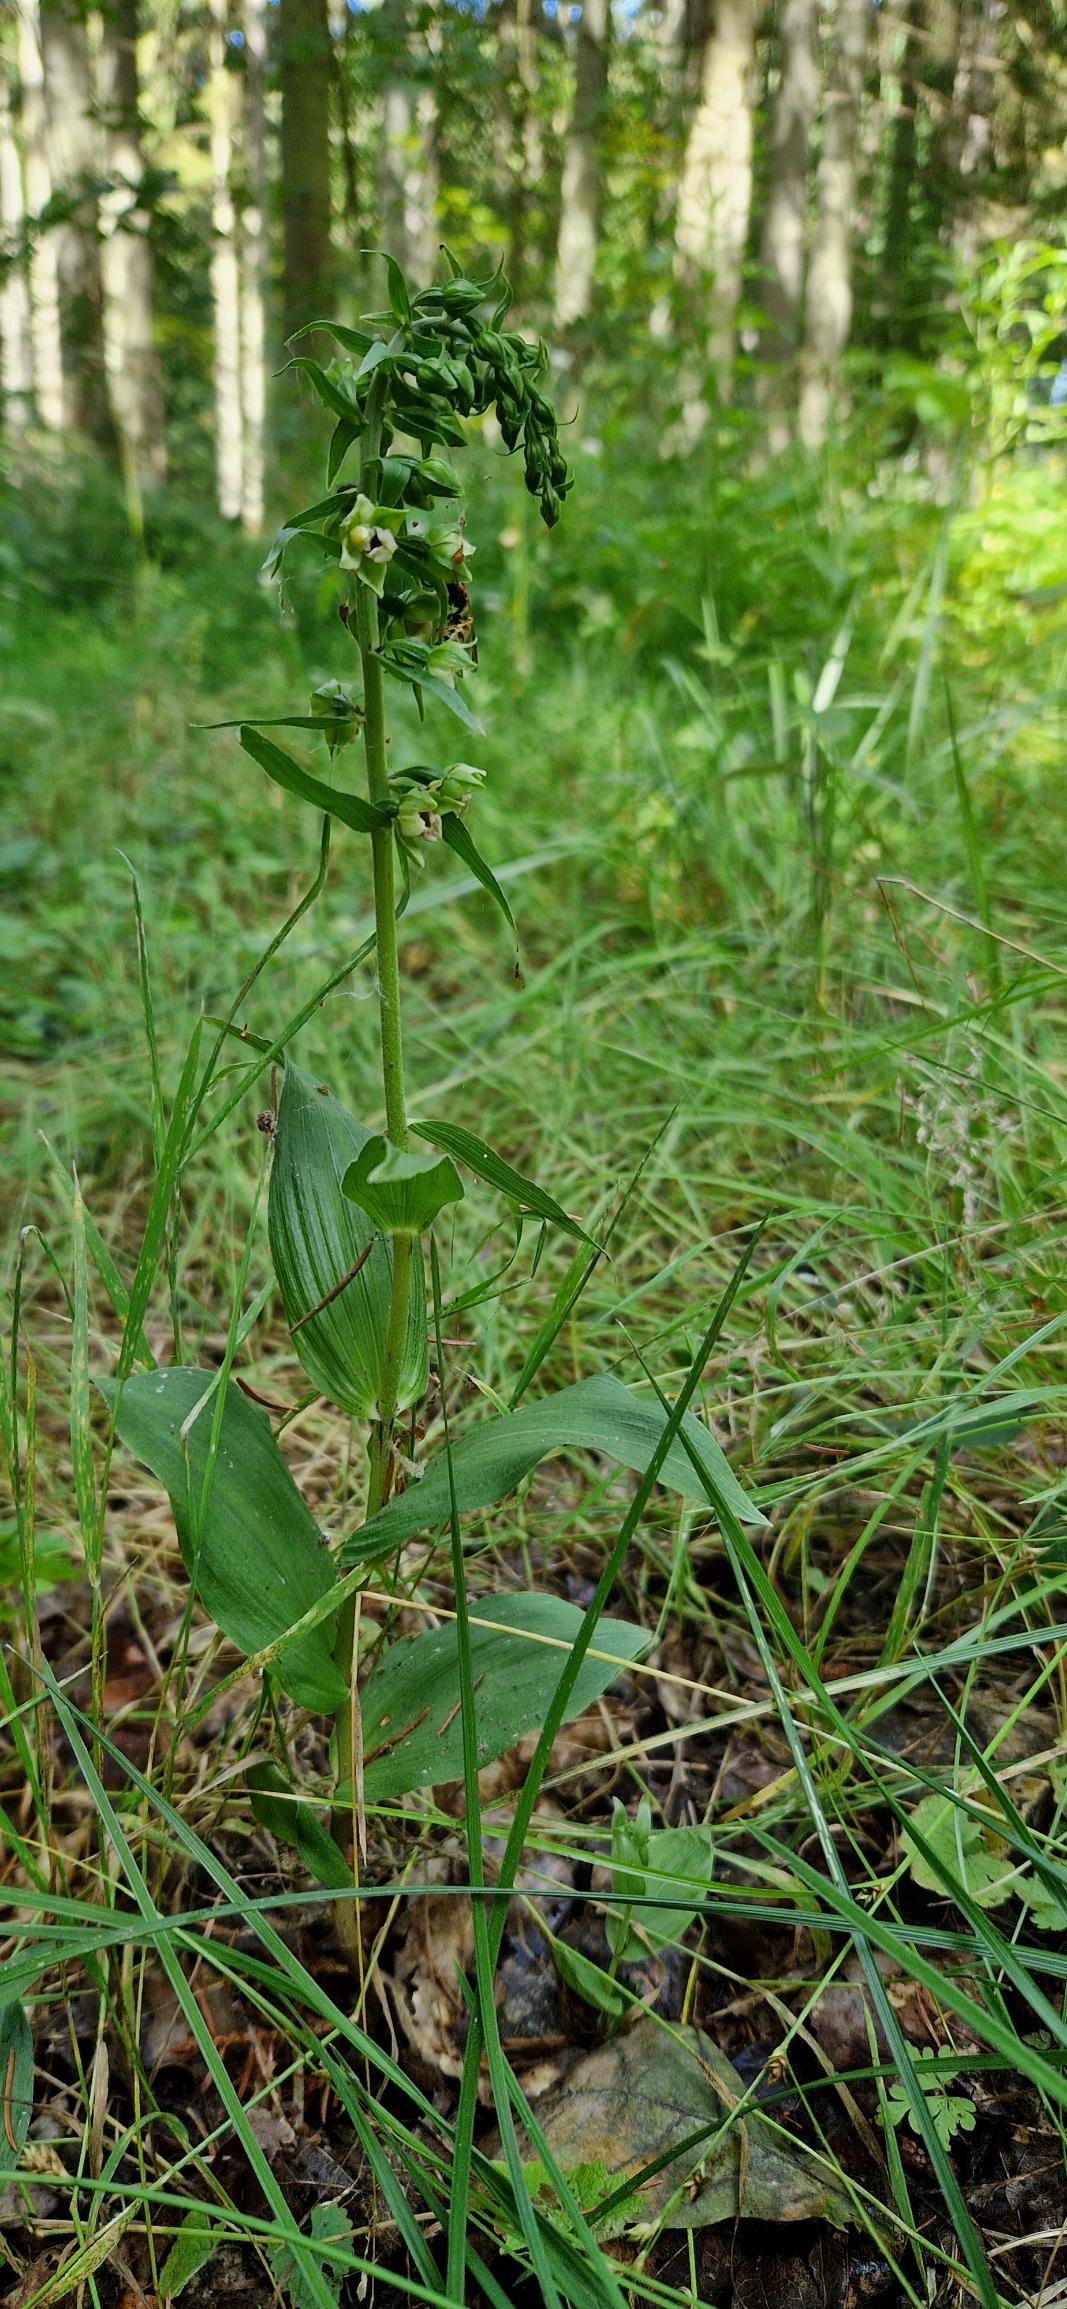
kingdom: Plantae
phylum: Tracheophyta
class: Liliopsida
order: Asparagales
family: Orchidaceae
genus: Epipactis
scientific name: Epipactis helleborine
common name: Skov-hullæbe
